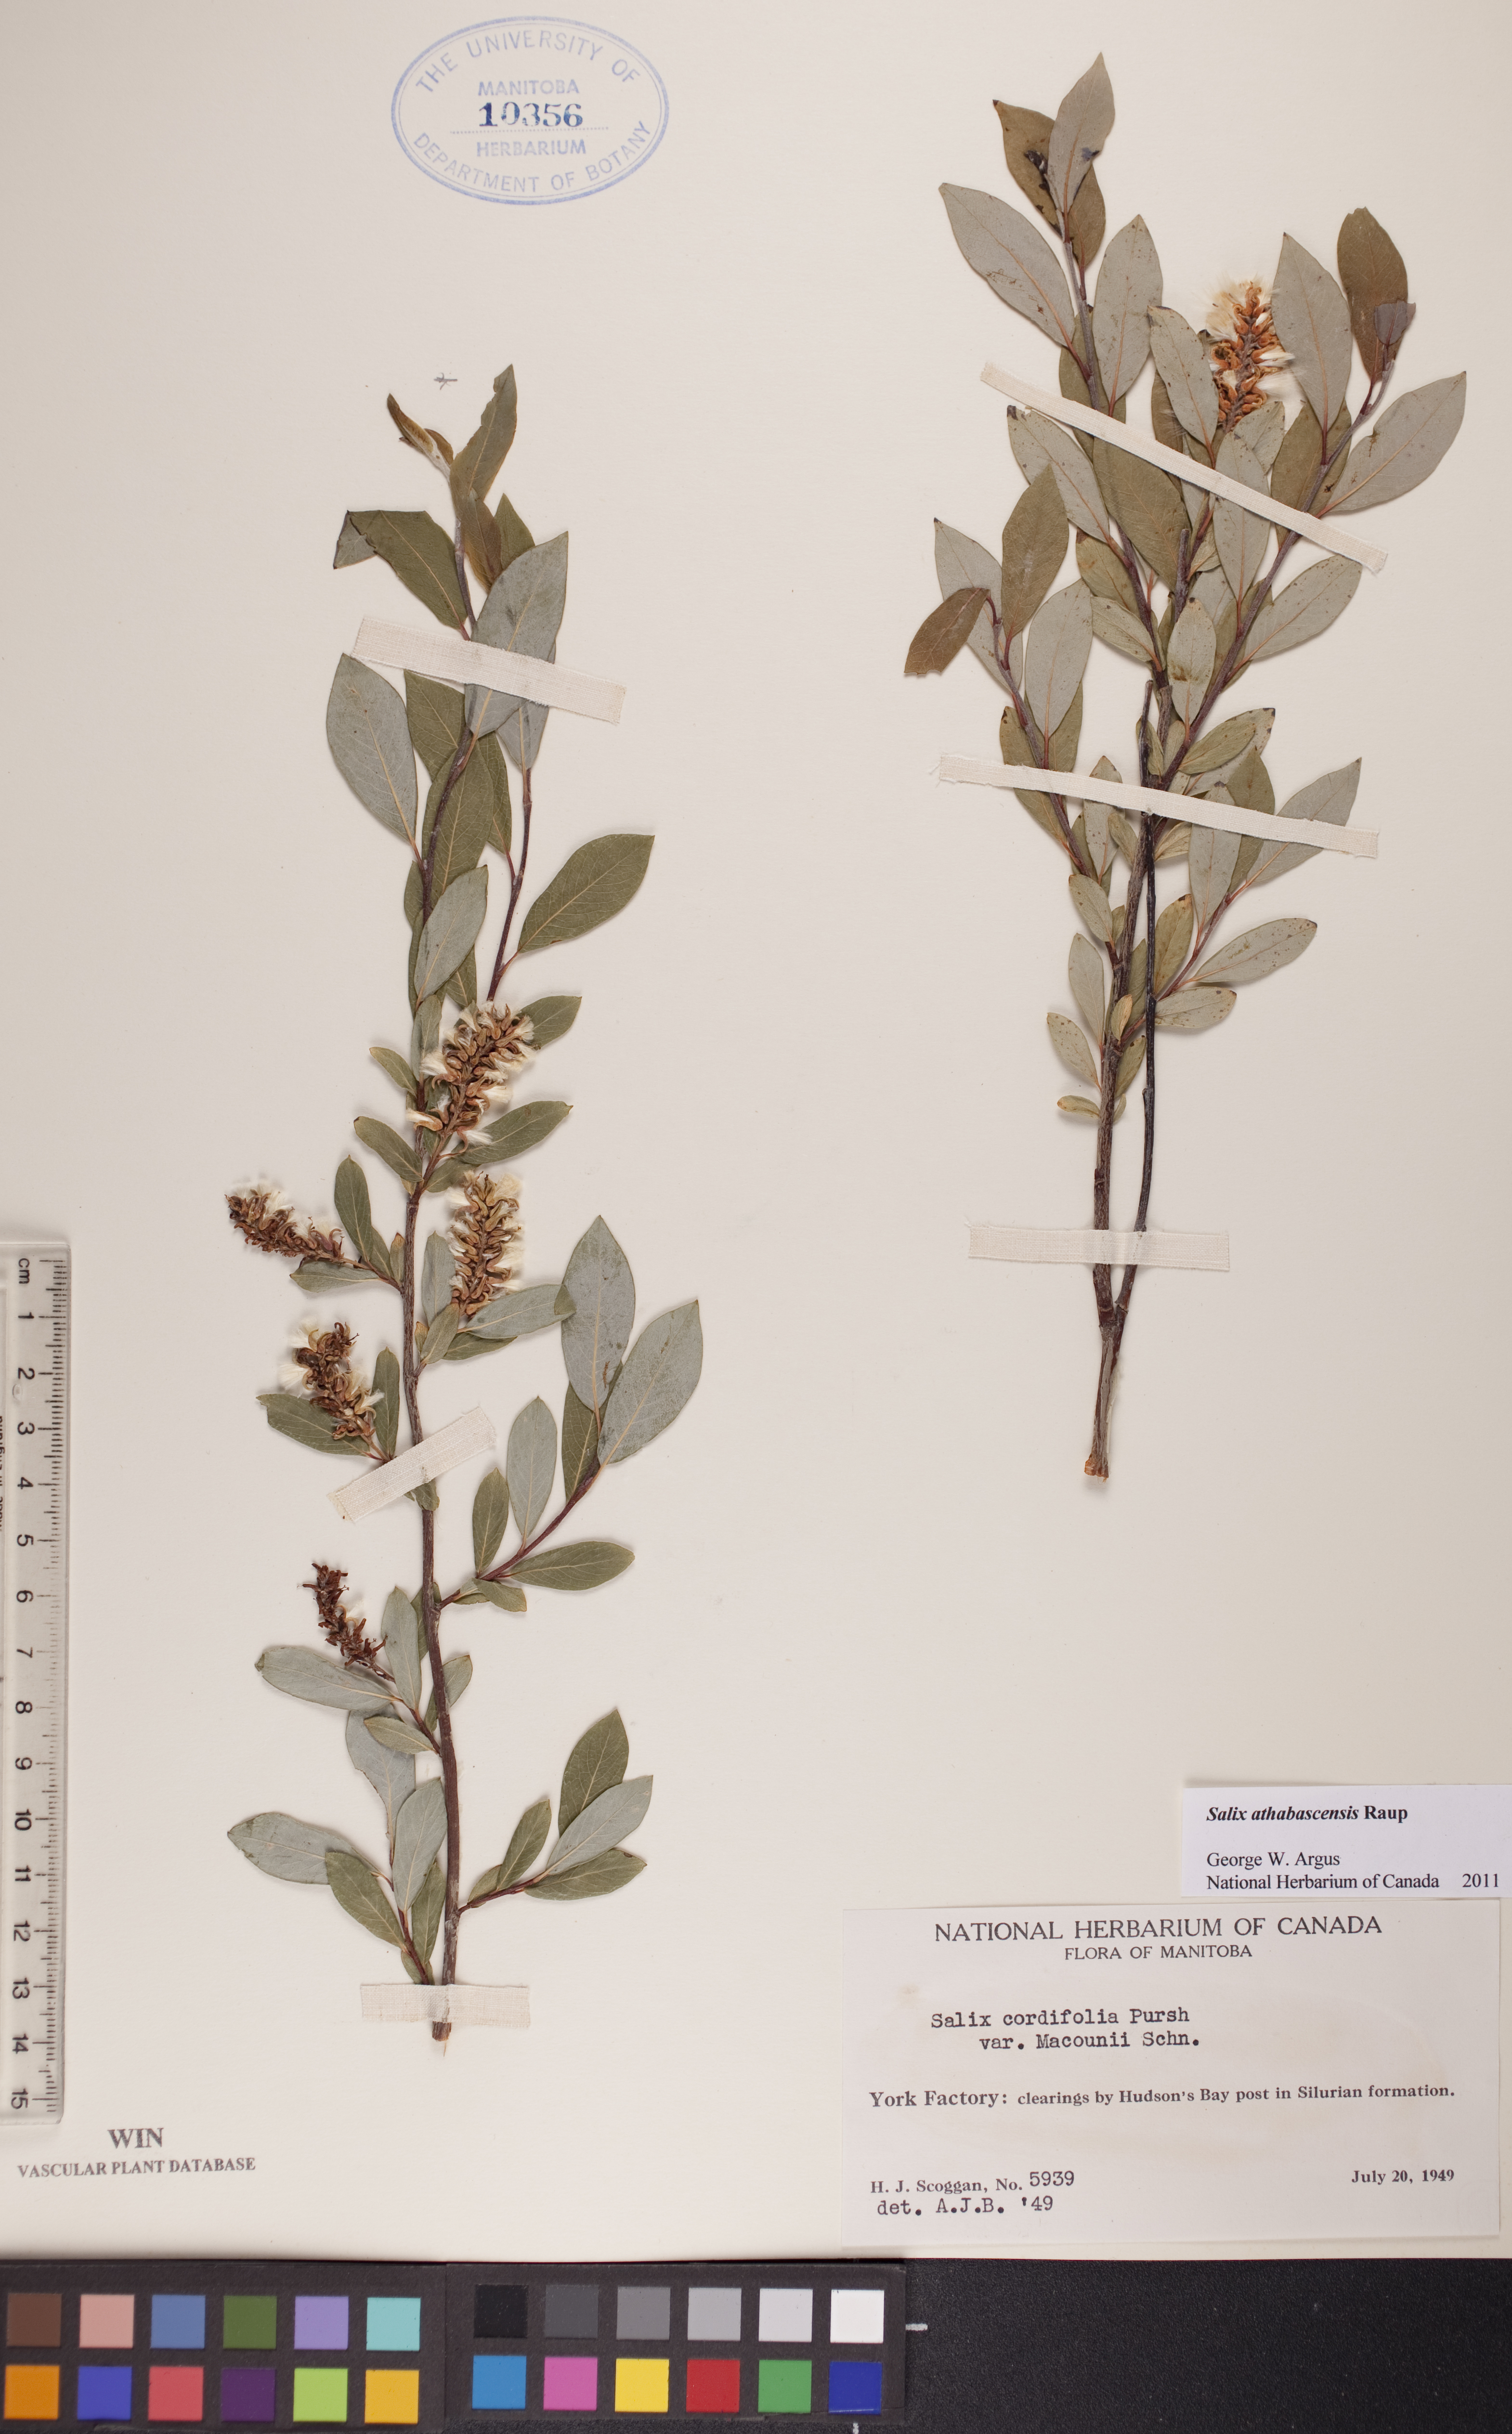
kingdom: Plantae
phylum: Tracheophyta
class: Magnoliopsida
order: Malpighiales
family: Salicaceae
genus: Salix
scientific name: Salix athabascensis
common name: Athabasca willow
